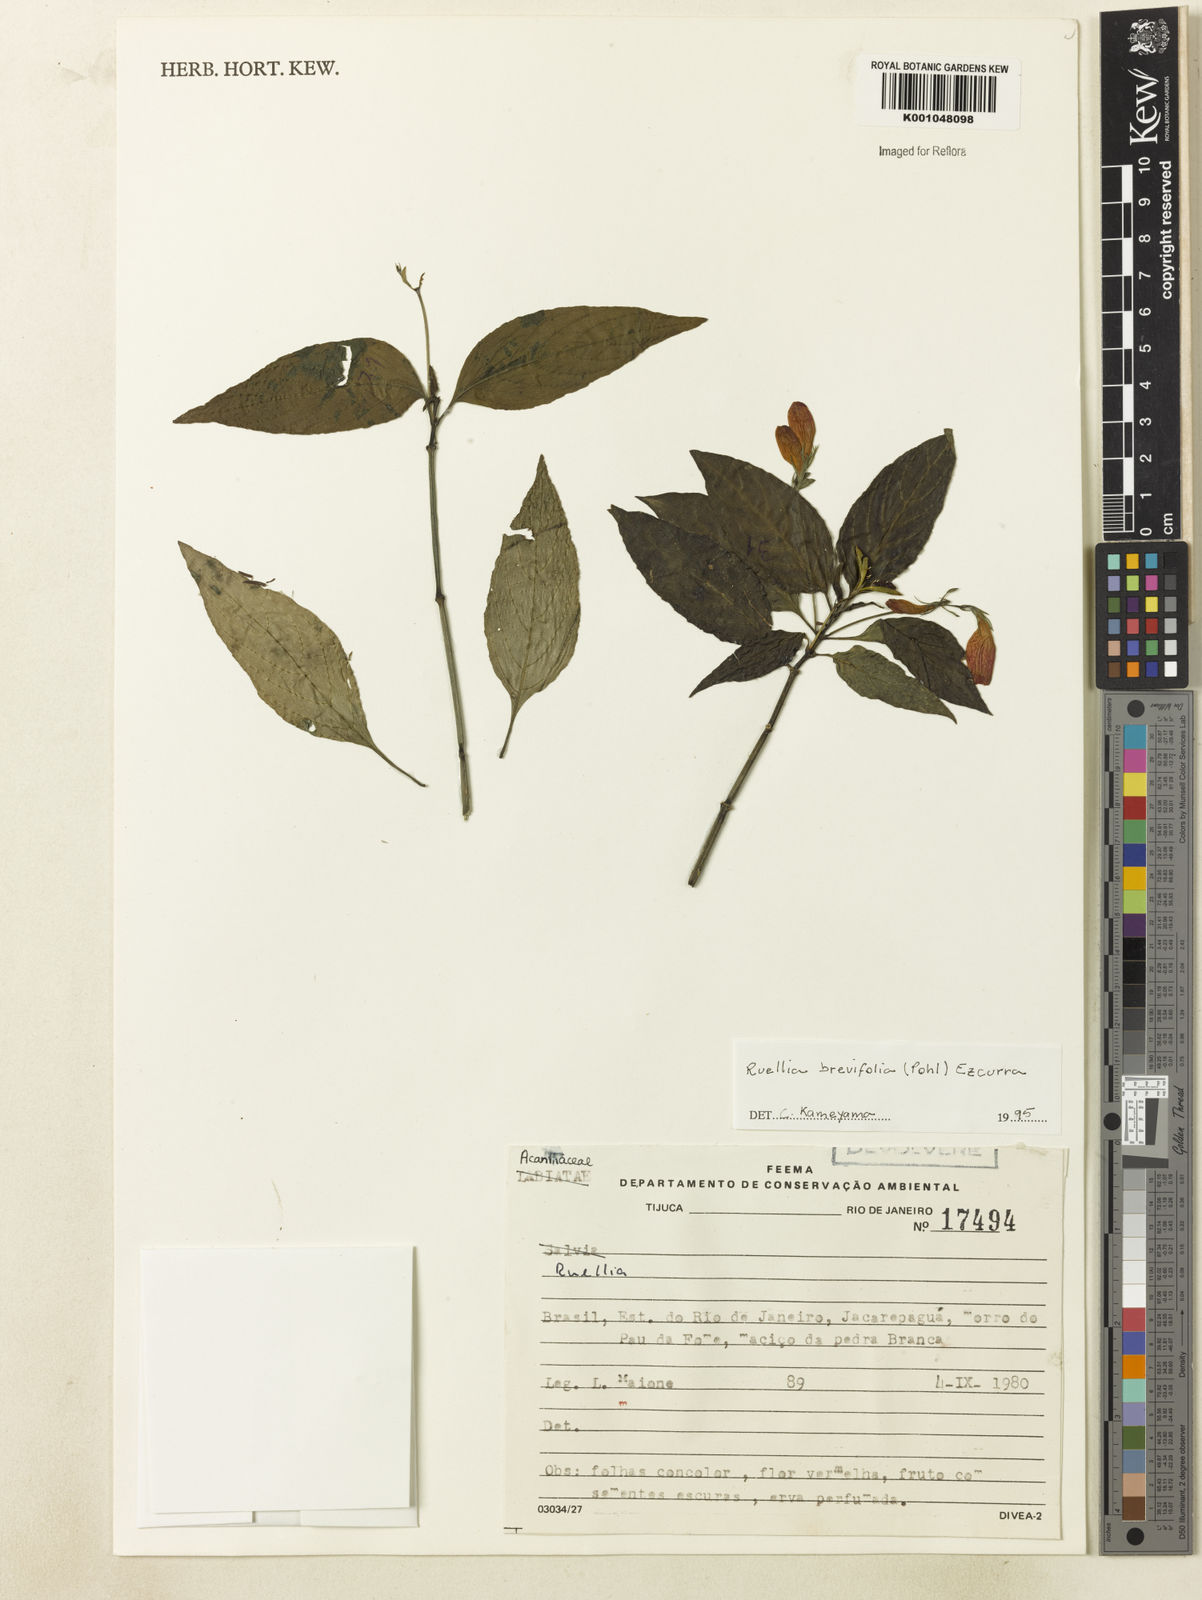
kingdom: Plantae
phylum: Tracheophyta
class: Magnoliopsida
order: Lamiales
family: Acanthaceae
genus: Ruellia
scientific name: Ruellia brevifolia
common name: Tropical wild petunia
